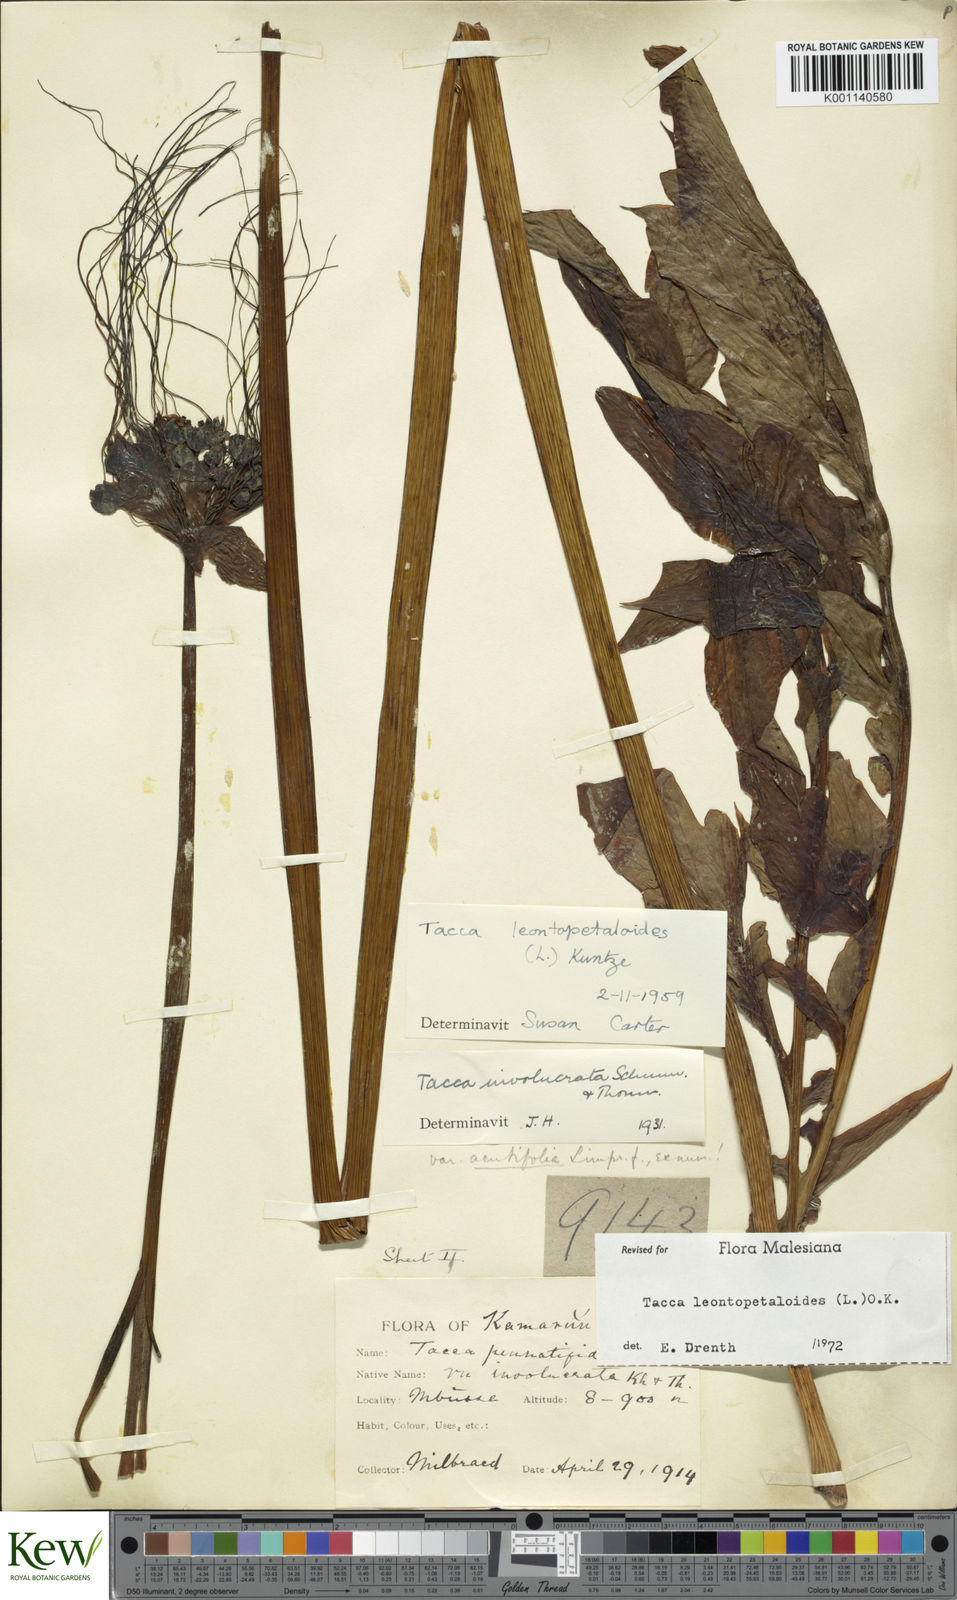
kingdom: Plantae
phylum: Tracheophyta
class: Liliopsida
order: Dioscoreales
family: Dioscoreaceae
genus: Tacca
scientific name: Tacca leontopetaloides
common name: Arrowroot
